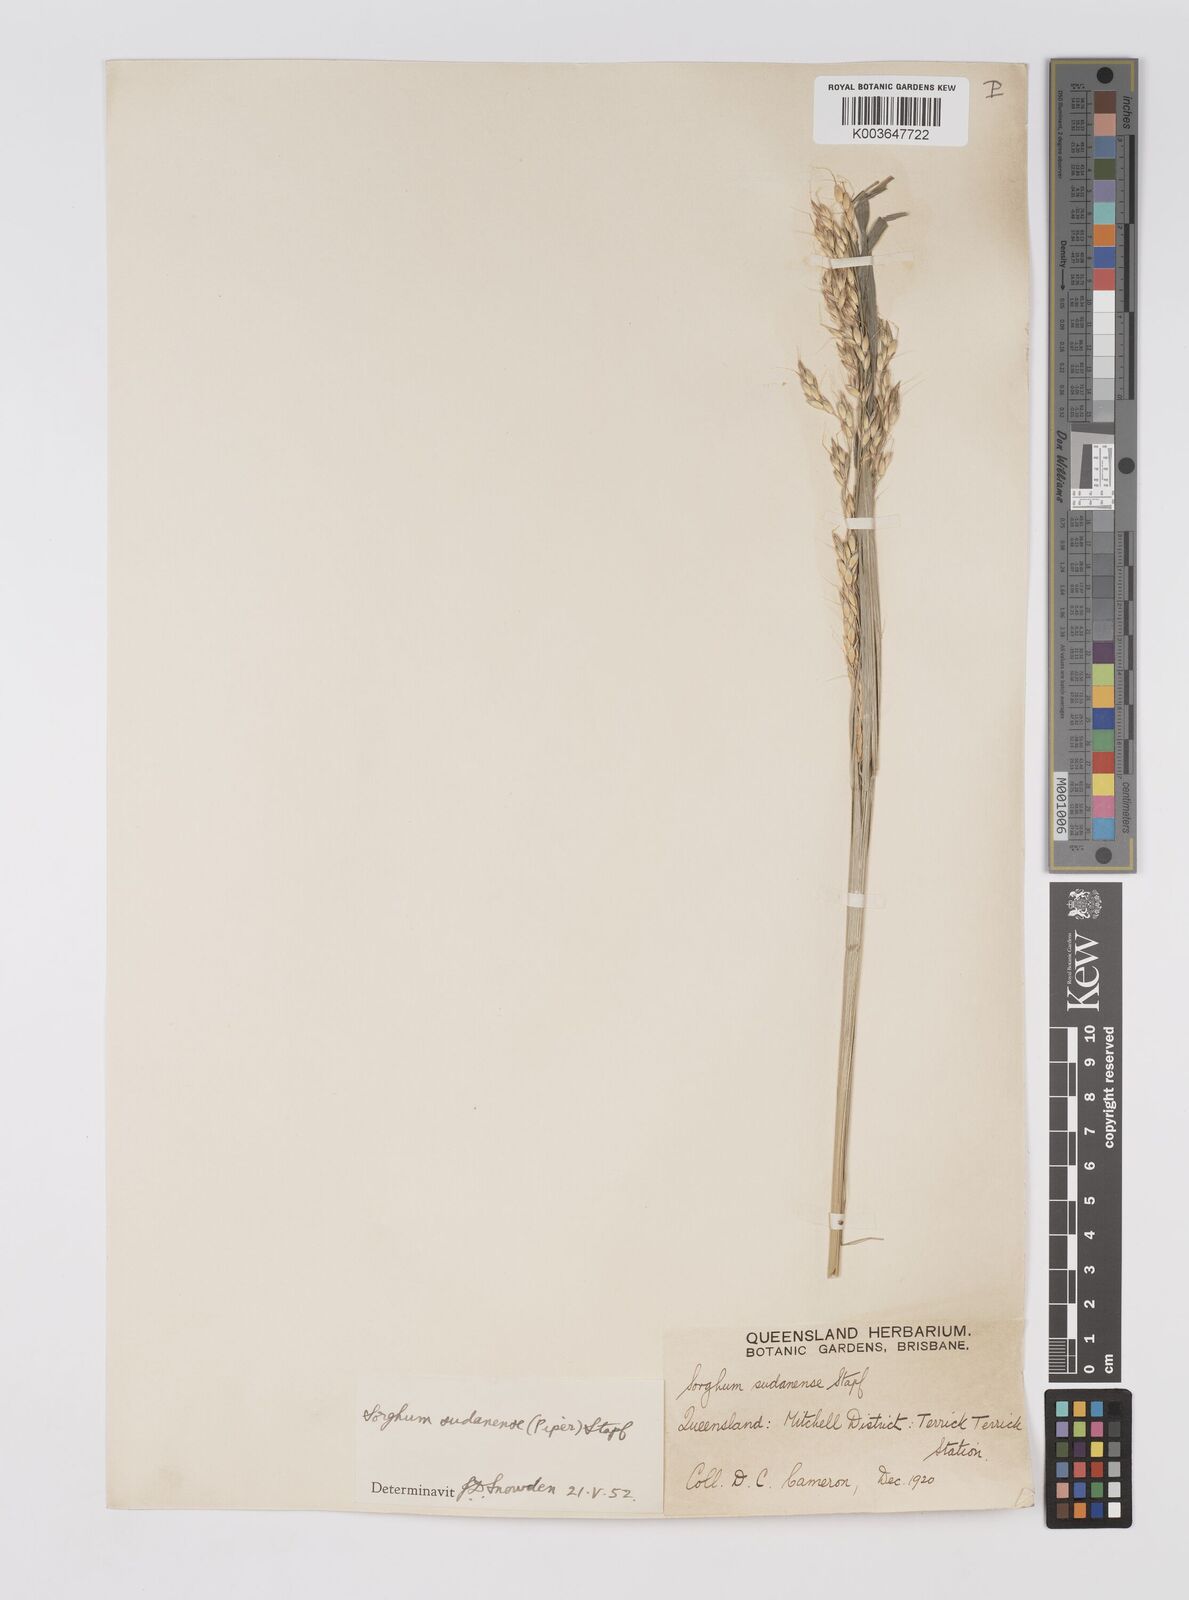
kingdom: Plantae
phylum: Tracheophyta
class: Liliopsida
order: Poales
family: Poaceae
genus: Sorghum
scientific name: Sorghum drummondii
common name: Sudangrass
